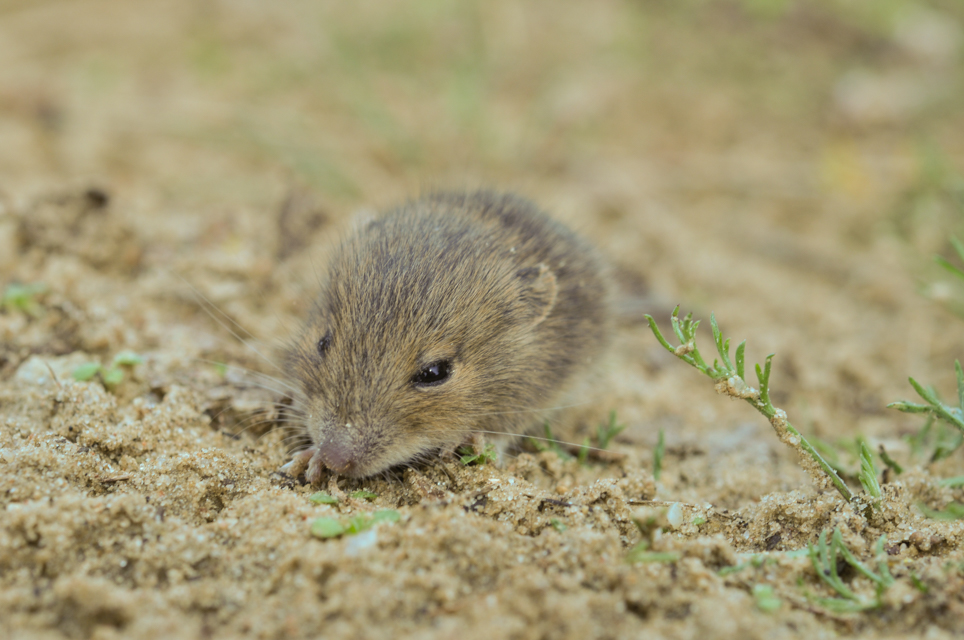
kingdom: Animalia
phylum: Chordata
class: Mammalia
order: Rodentia
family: Cricetidae
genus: Microtus
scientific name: Microtus arvalis
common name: Common vole
